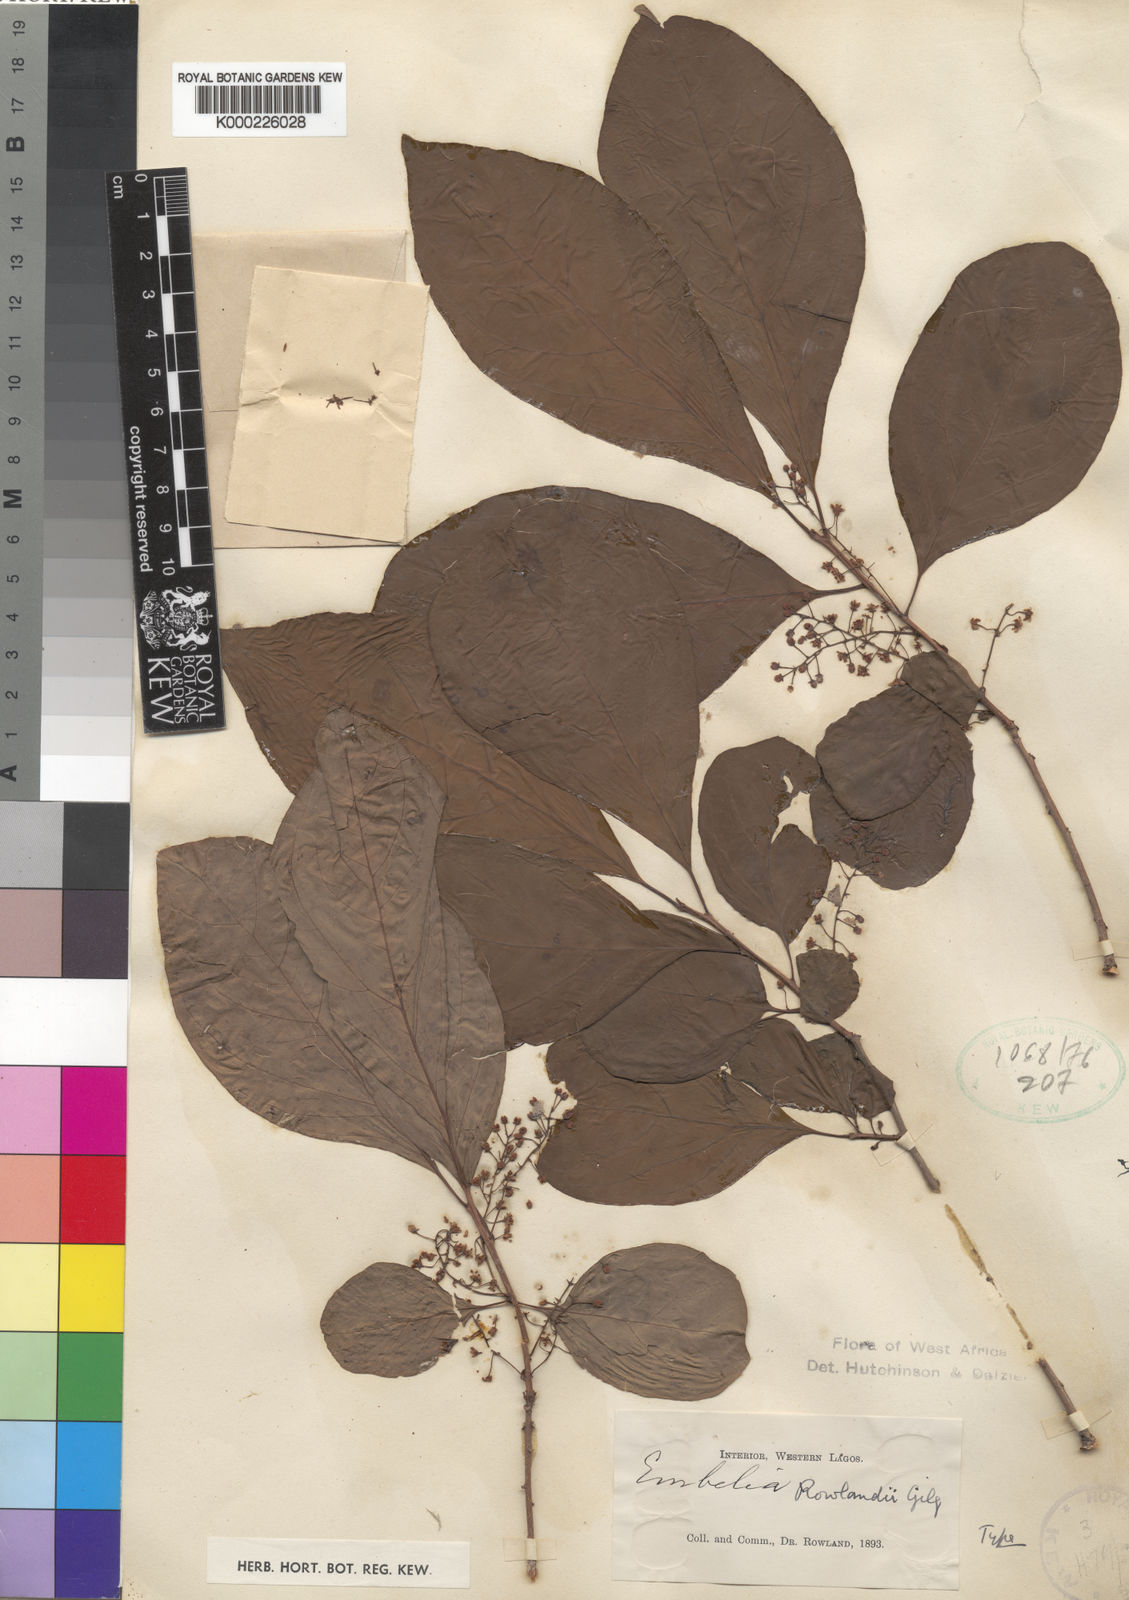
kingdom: Plantae
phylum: Tracheophyta
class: Magnoliopsida
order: Ericales
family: Primulaceae
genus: Embelia
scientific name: Embelia rowlandii
